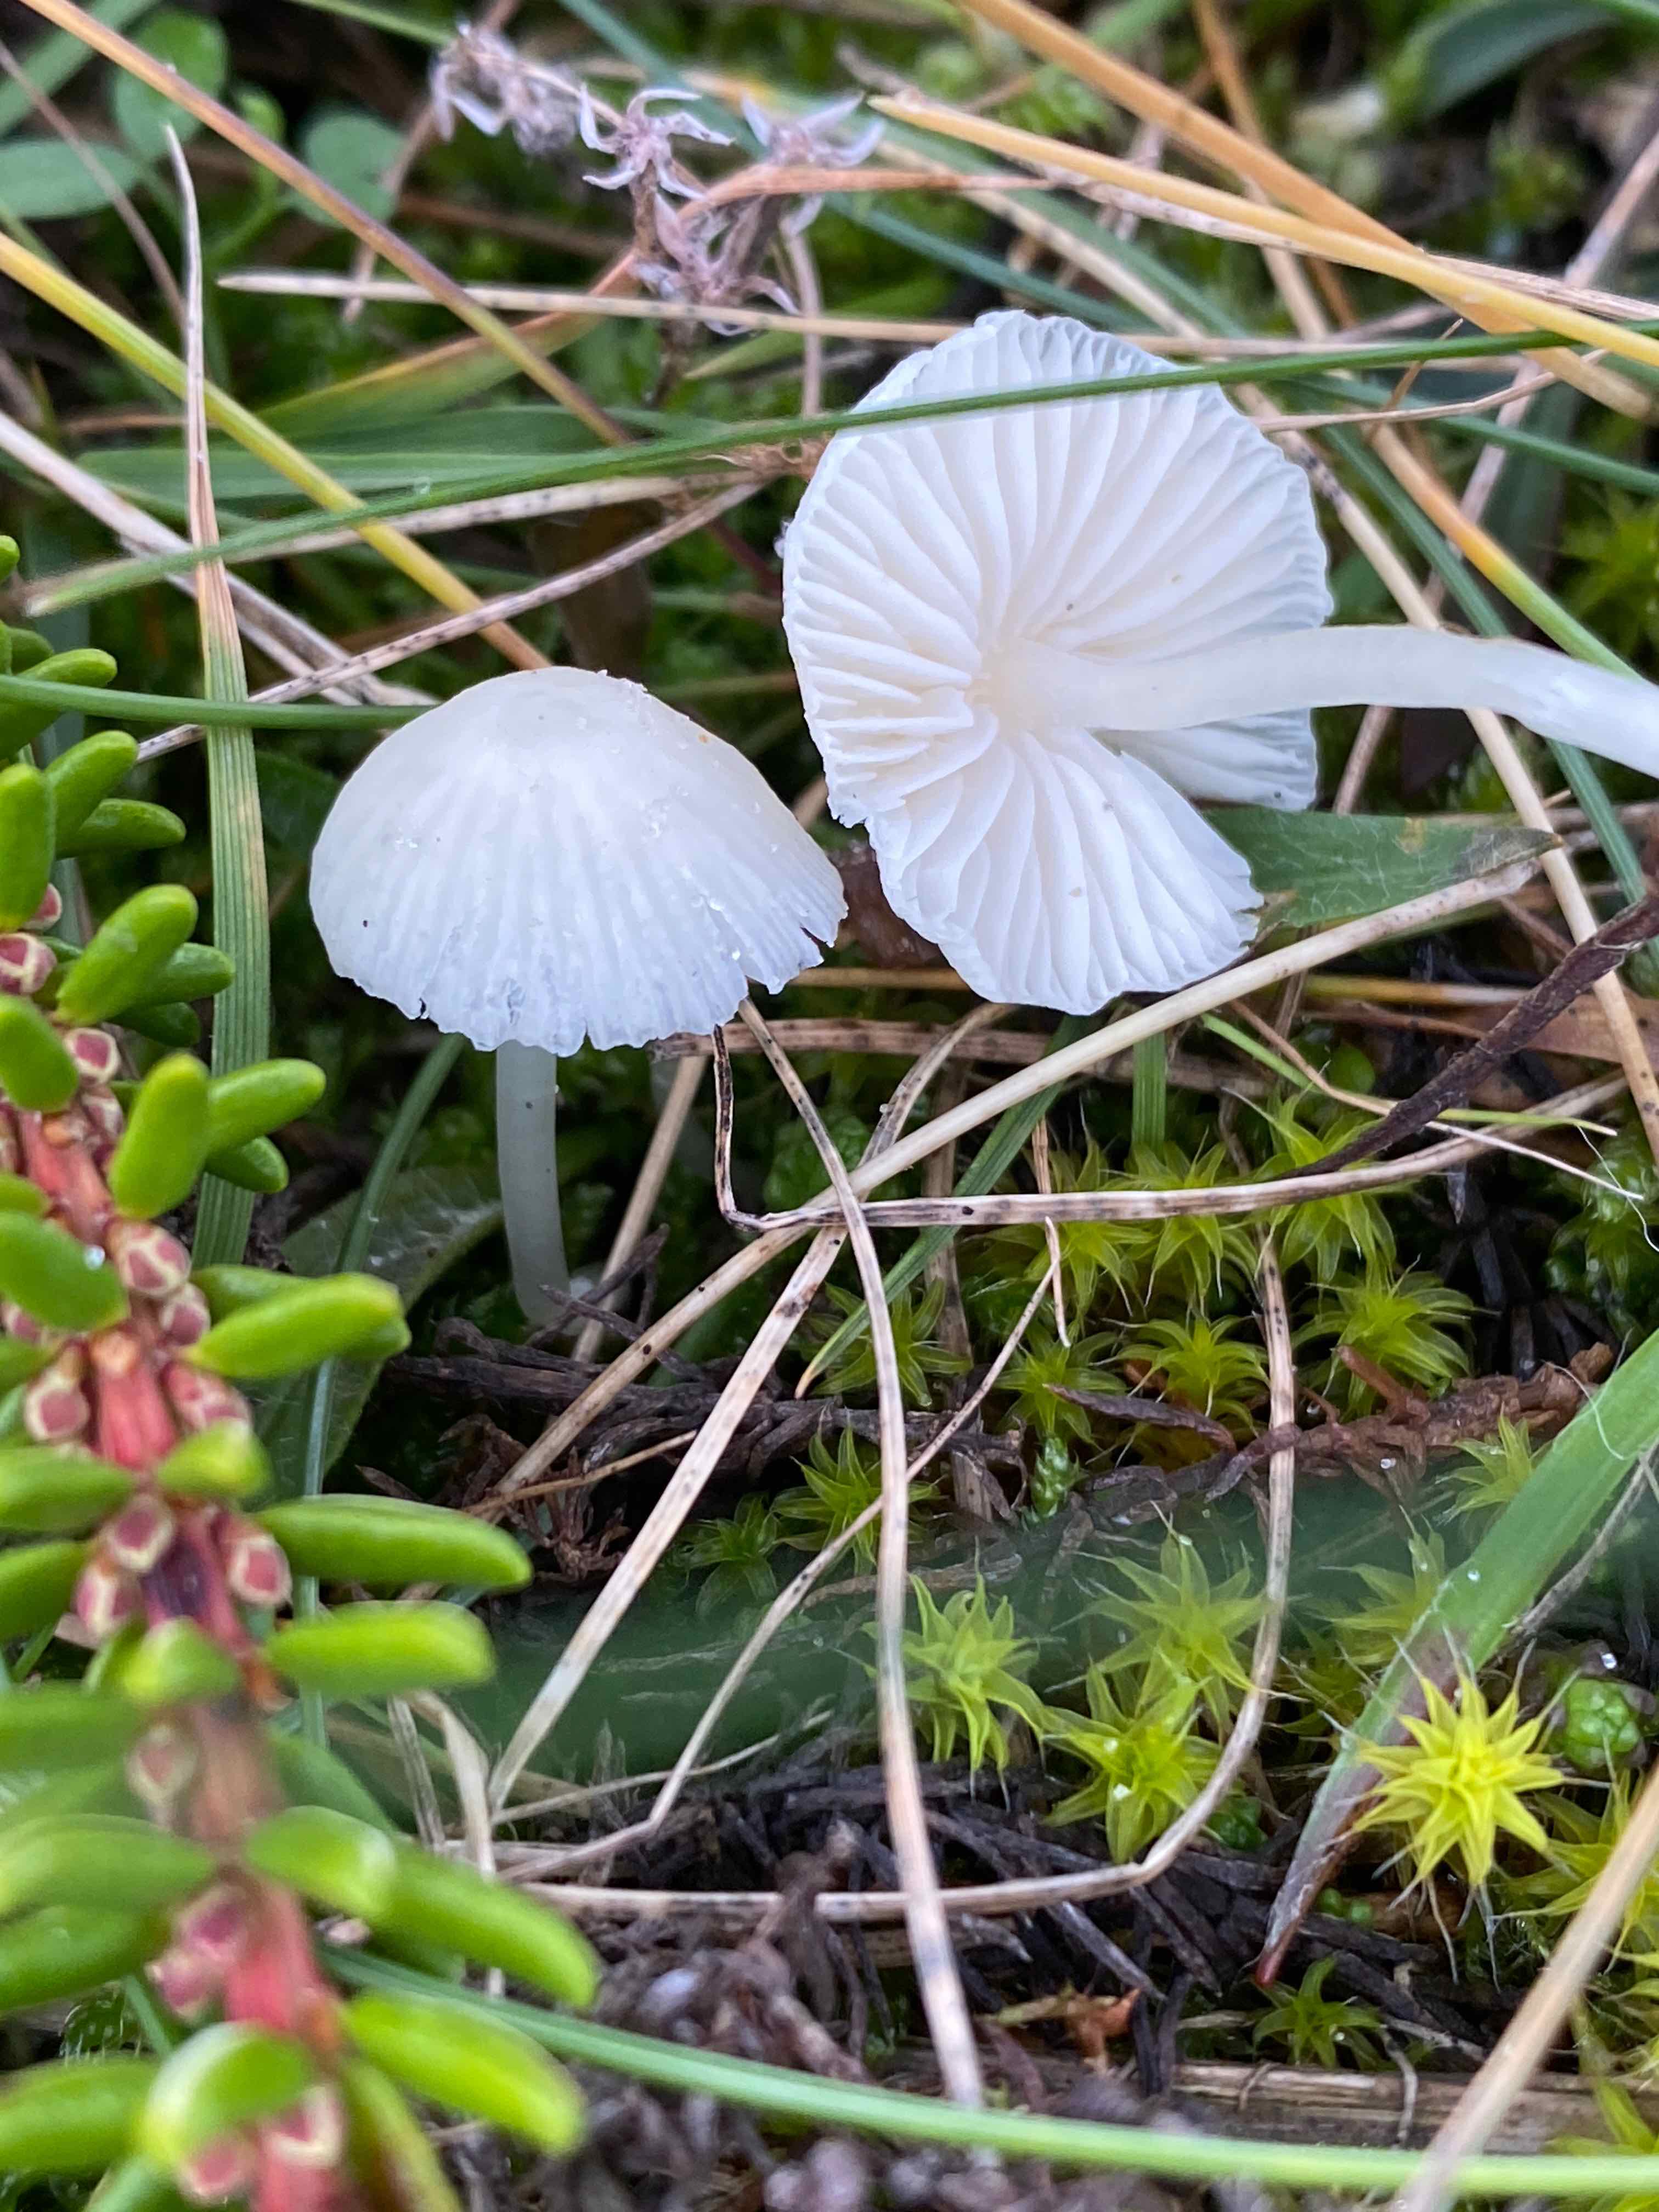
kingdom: Fungi
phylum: Basidiomycota
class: Agaricomycetes
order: Agaricales
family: Mycenaceae
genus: Atheniella
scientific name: Atheniella flavoalba
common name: gulhvid huesvamp
